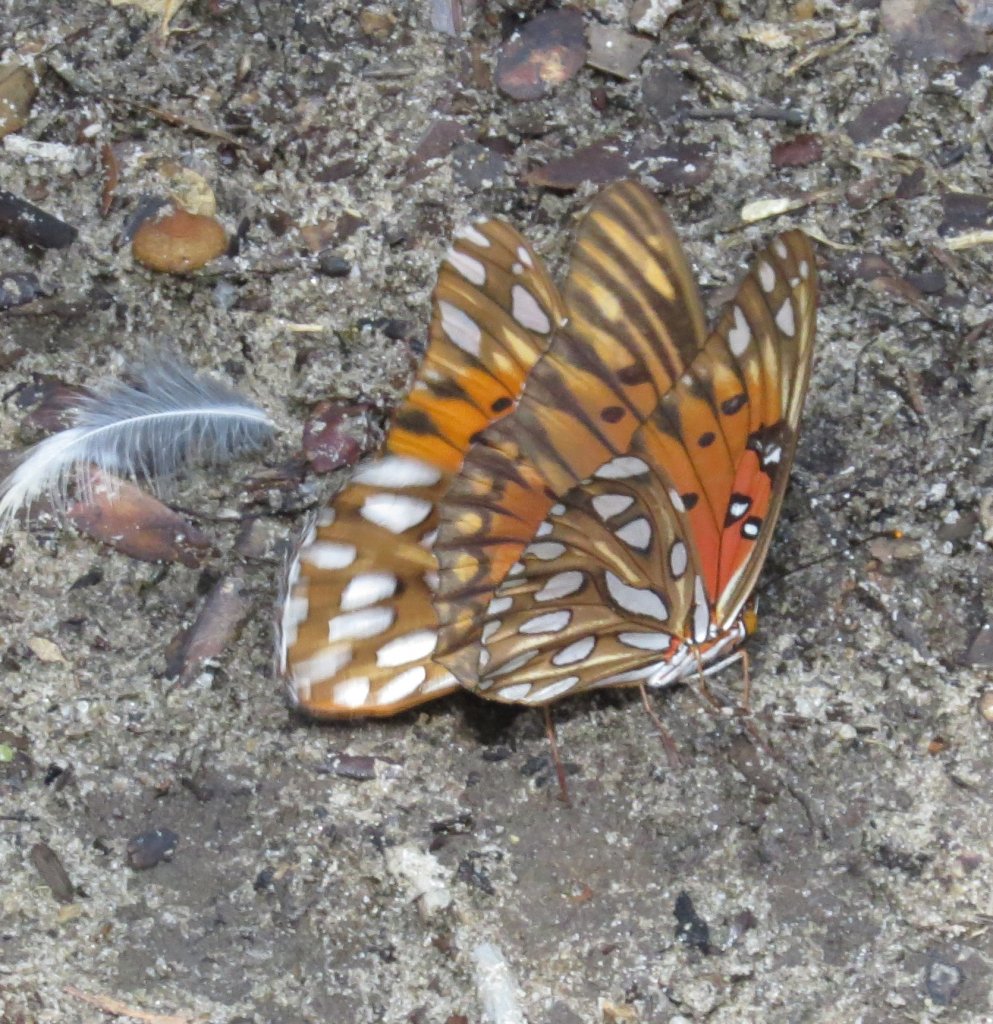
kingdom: Animalia
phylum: Arthropoda
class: Insecta
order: Lepidoptera
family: Nymphalidae
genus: Dione
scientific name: Dione vanillae
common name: Gulf Fritillary
